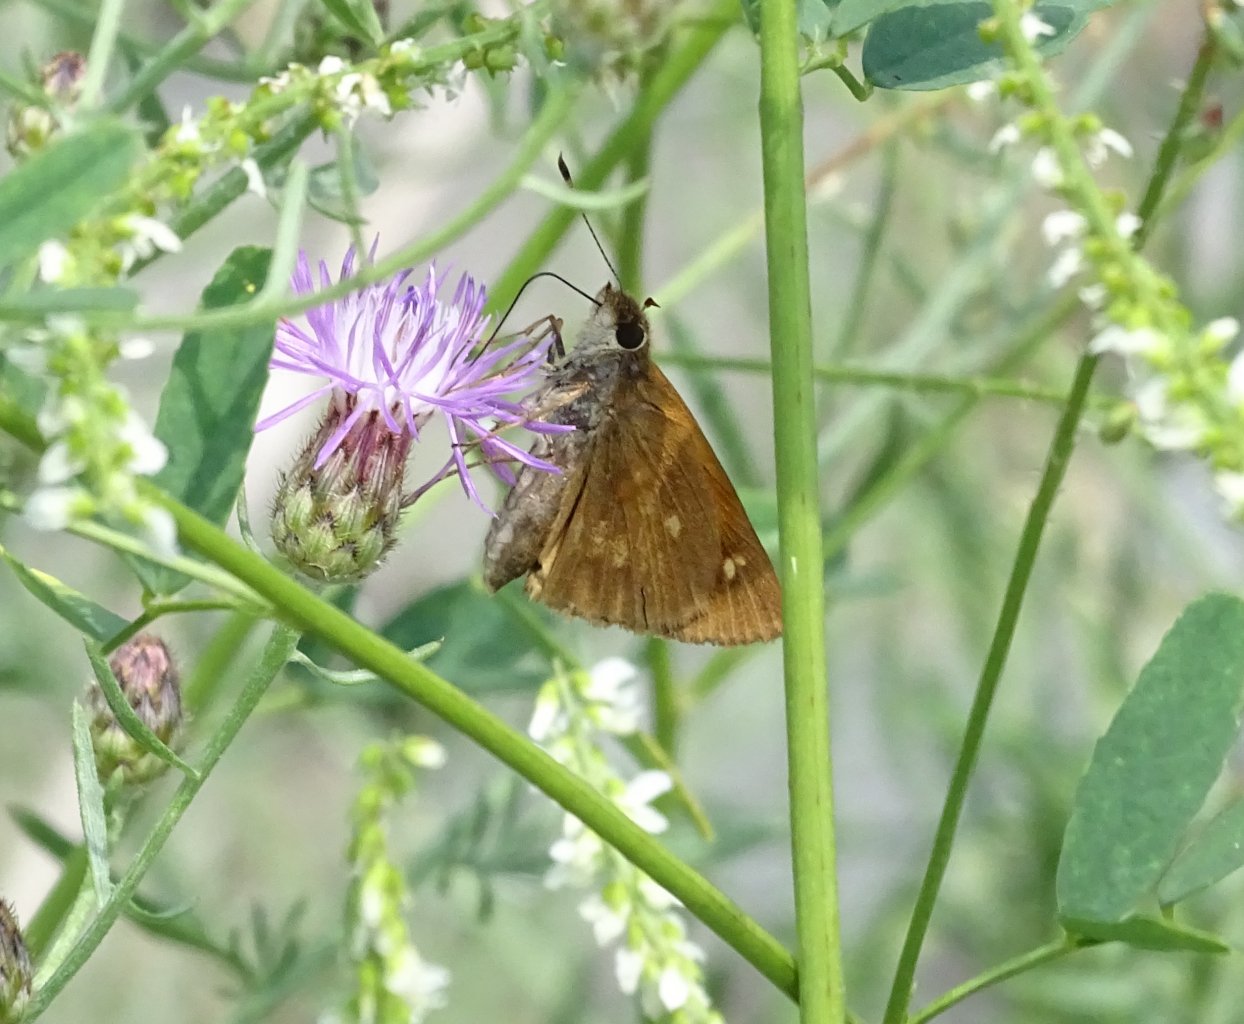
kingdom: Animalia
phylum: Arthropoda
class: Insecta
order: Lepidoptera
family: Hesperiidae
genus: Poanes
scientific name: Poanes viator
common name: Broad-winged Skipper
